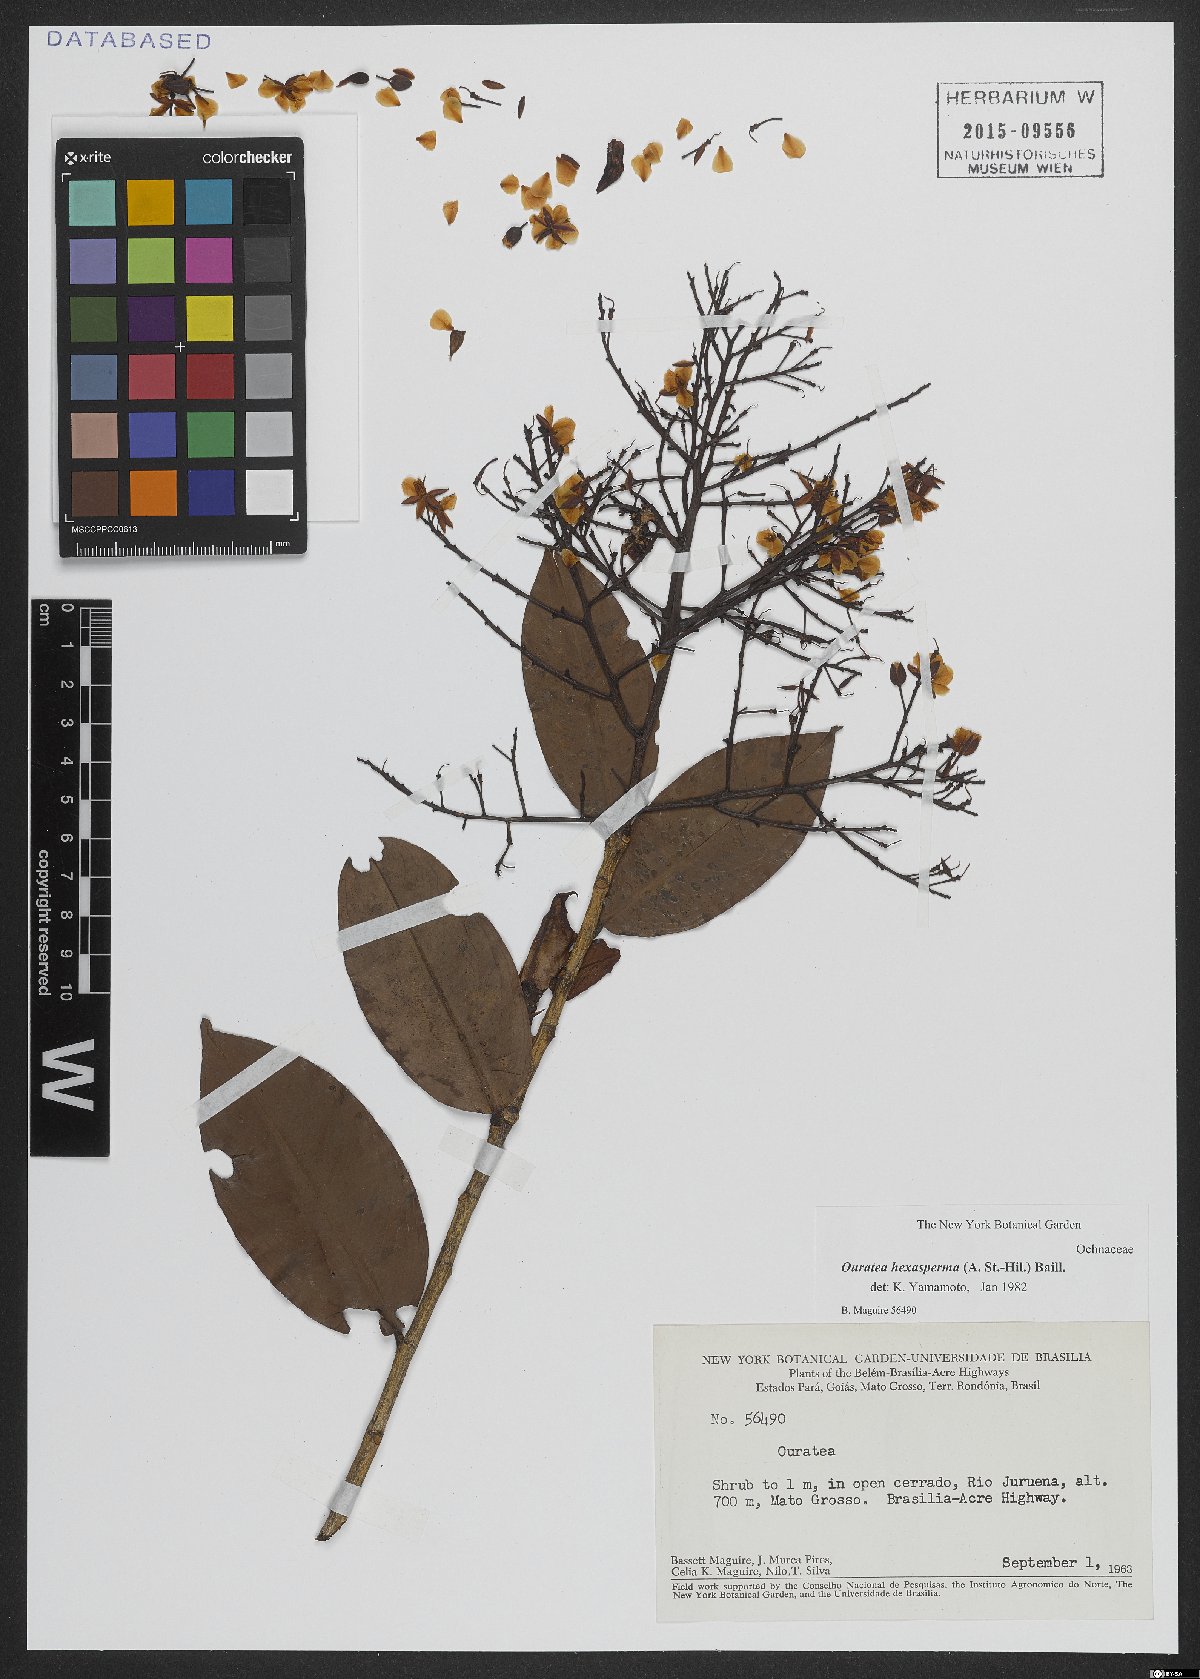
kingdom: Plantae
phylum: Tracheophyta
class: Magnoliopsida
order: Malpighiales
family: Ochnaceae
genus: Ouratea
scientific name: Ouratea hexasperma
